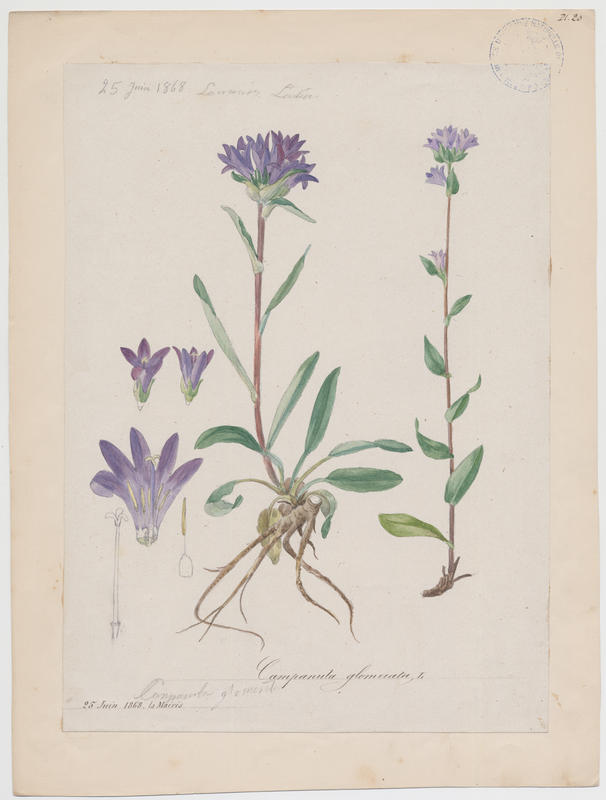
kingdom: Plantae
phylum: Tracheophyta
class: Magnoliopsida
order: Asterales
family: Campanulaceae
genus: Campanula
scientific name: Campanula glomerata
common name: Clustered bellflower
